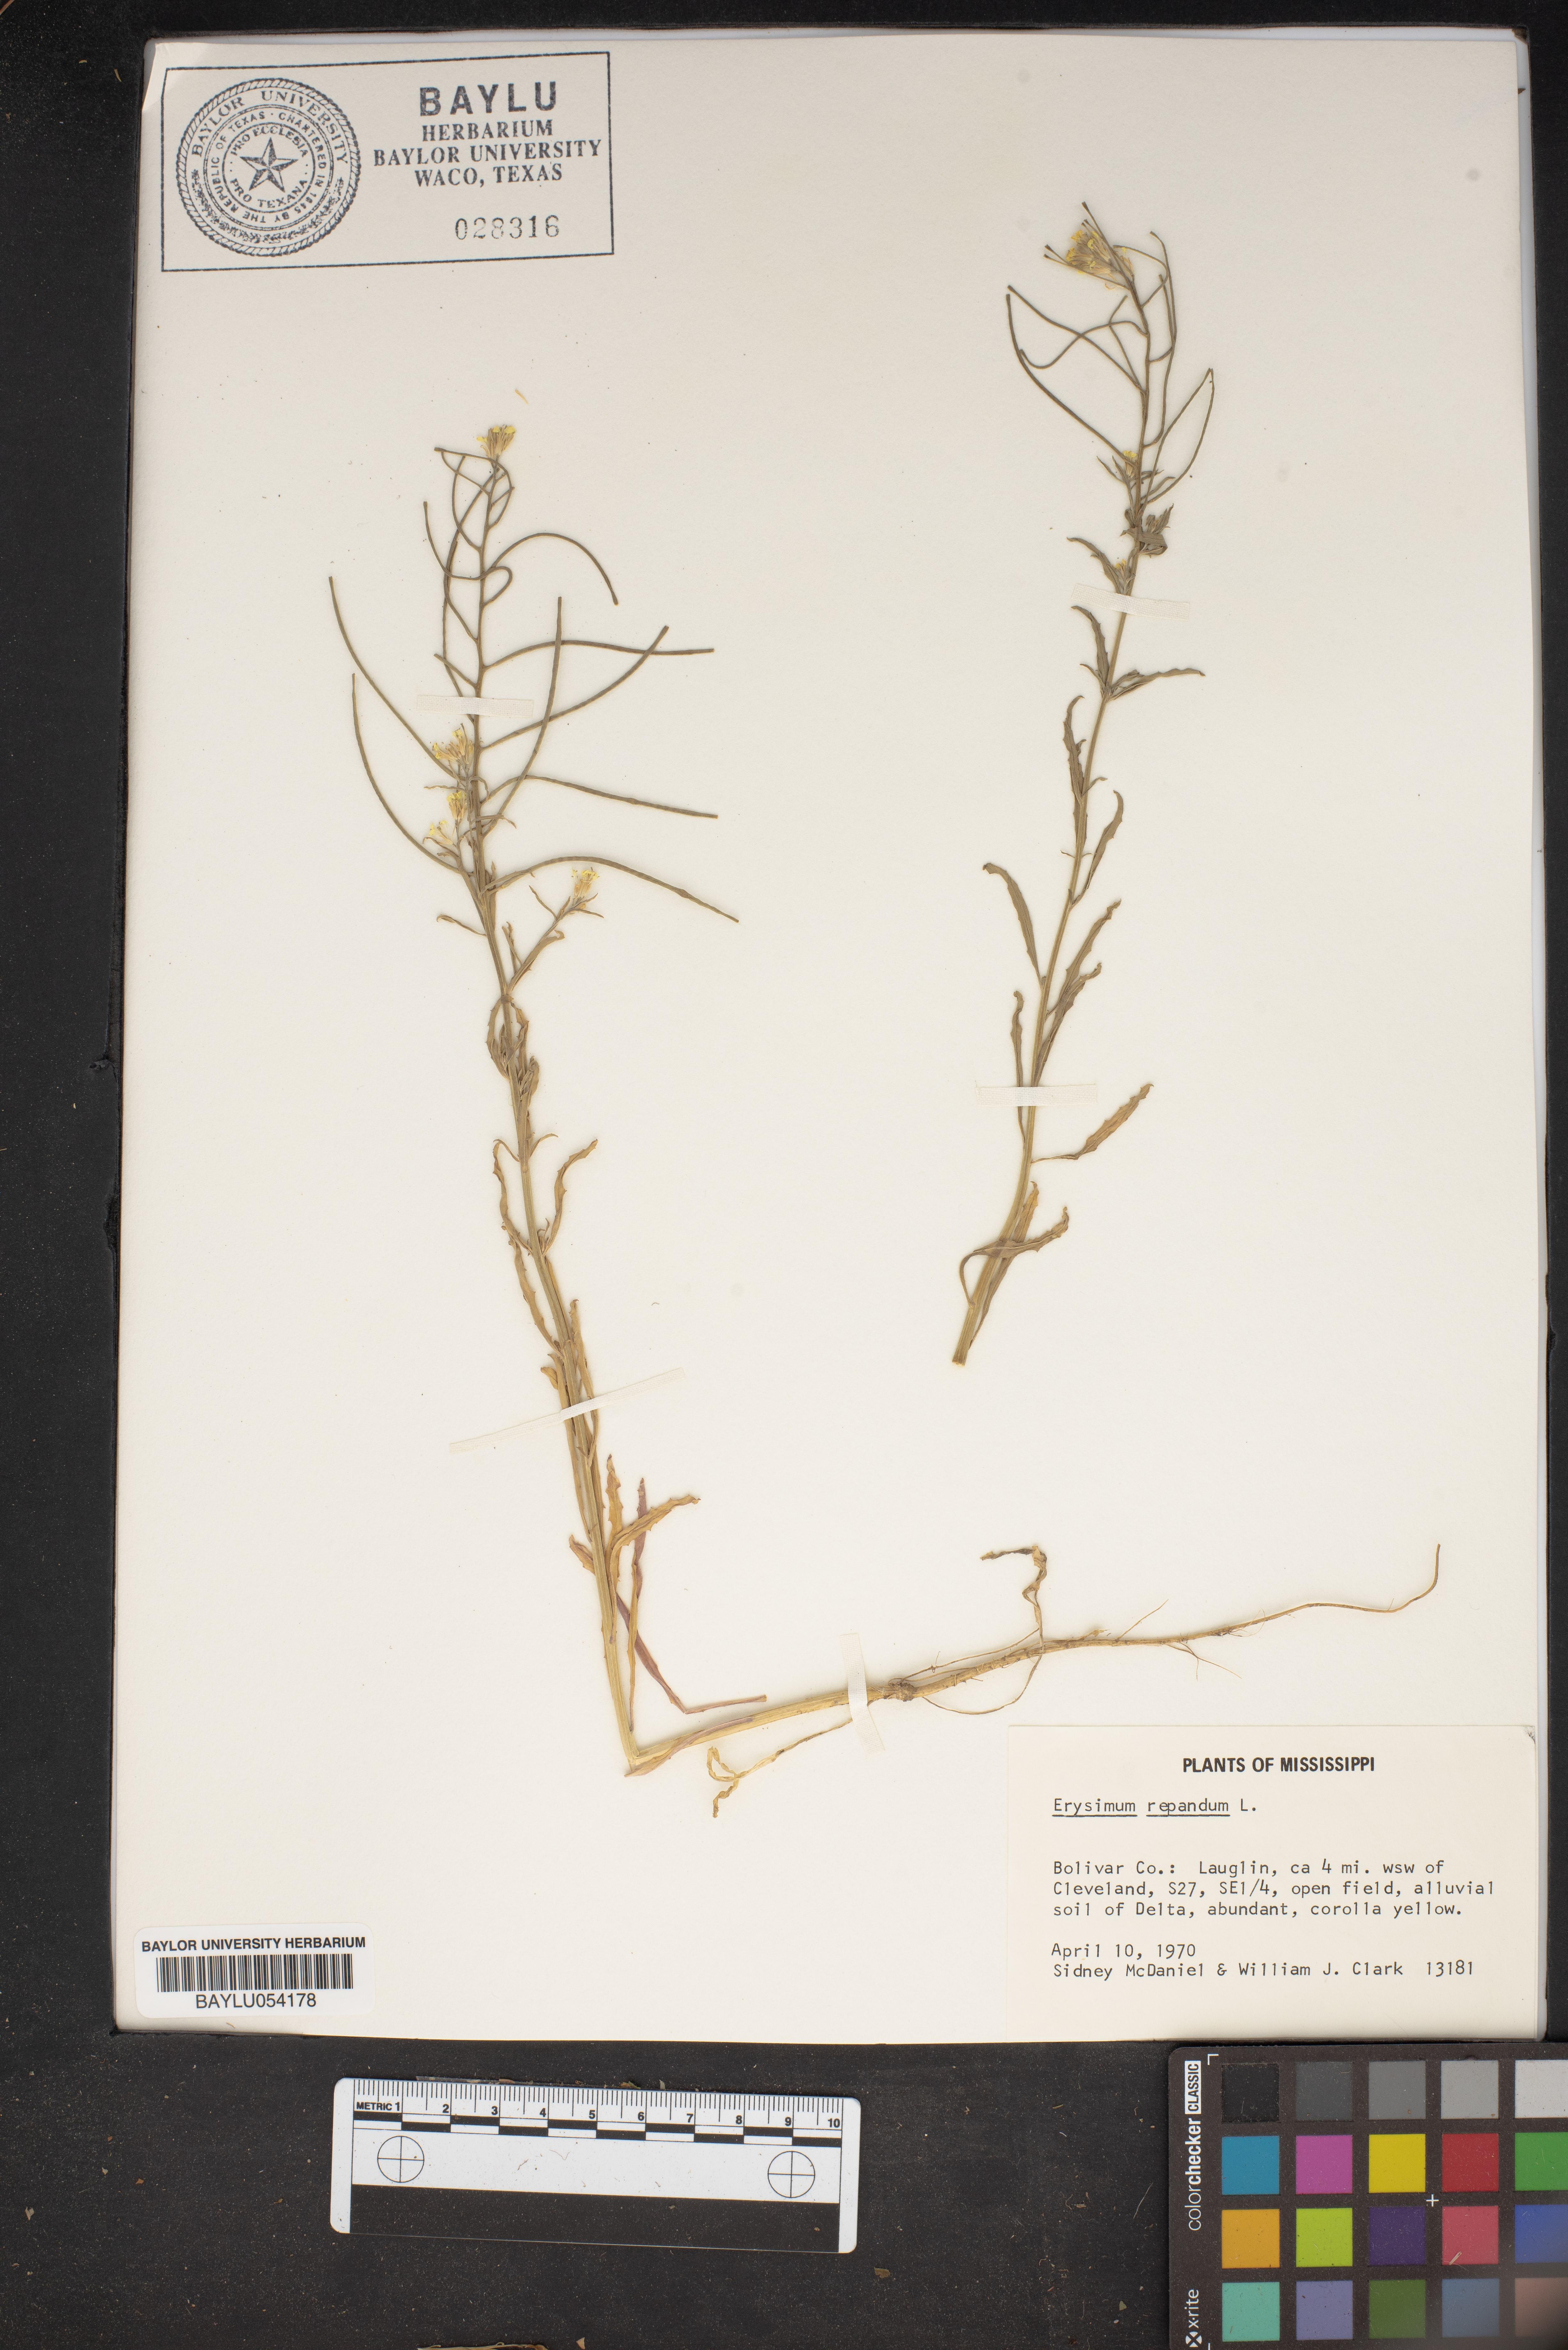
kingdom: Plantae
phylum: Tracheophyta
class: Magnoliopsida
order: Brassicales
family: Brassicaceae
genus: Erysimum
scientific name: Erysimum repandum
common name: Spreading wallflower
